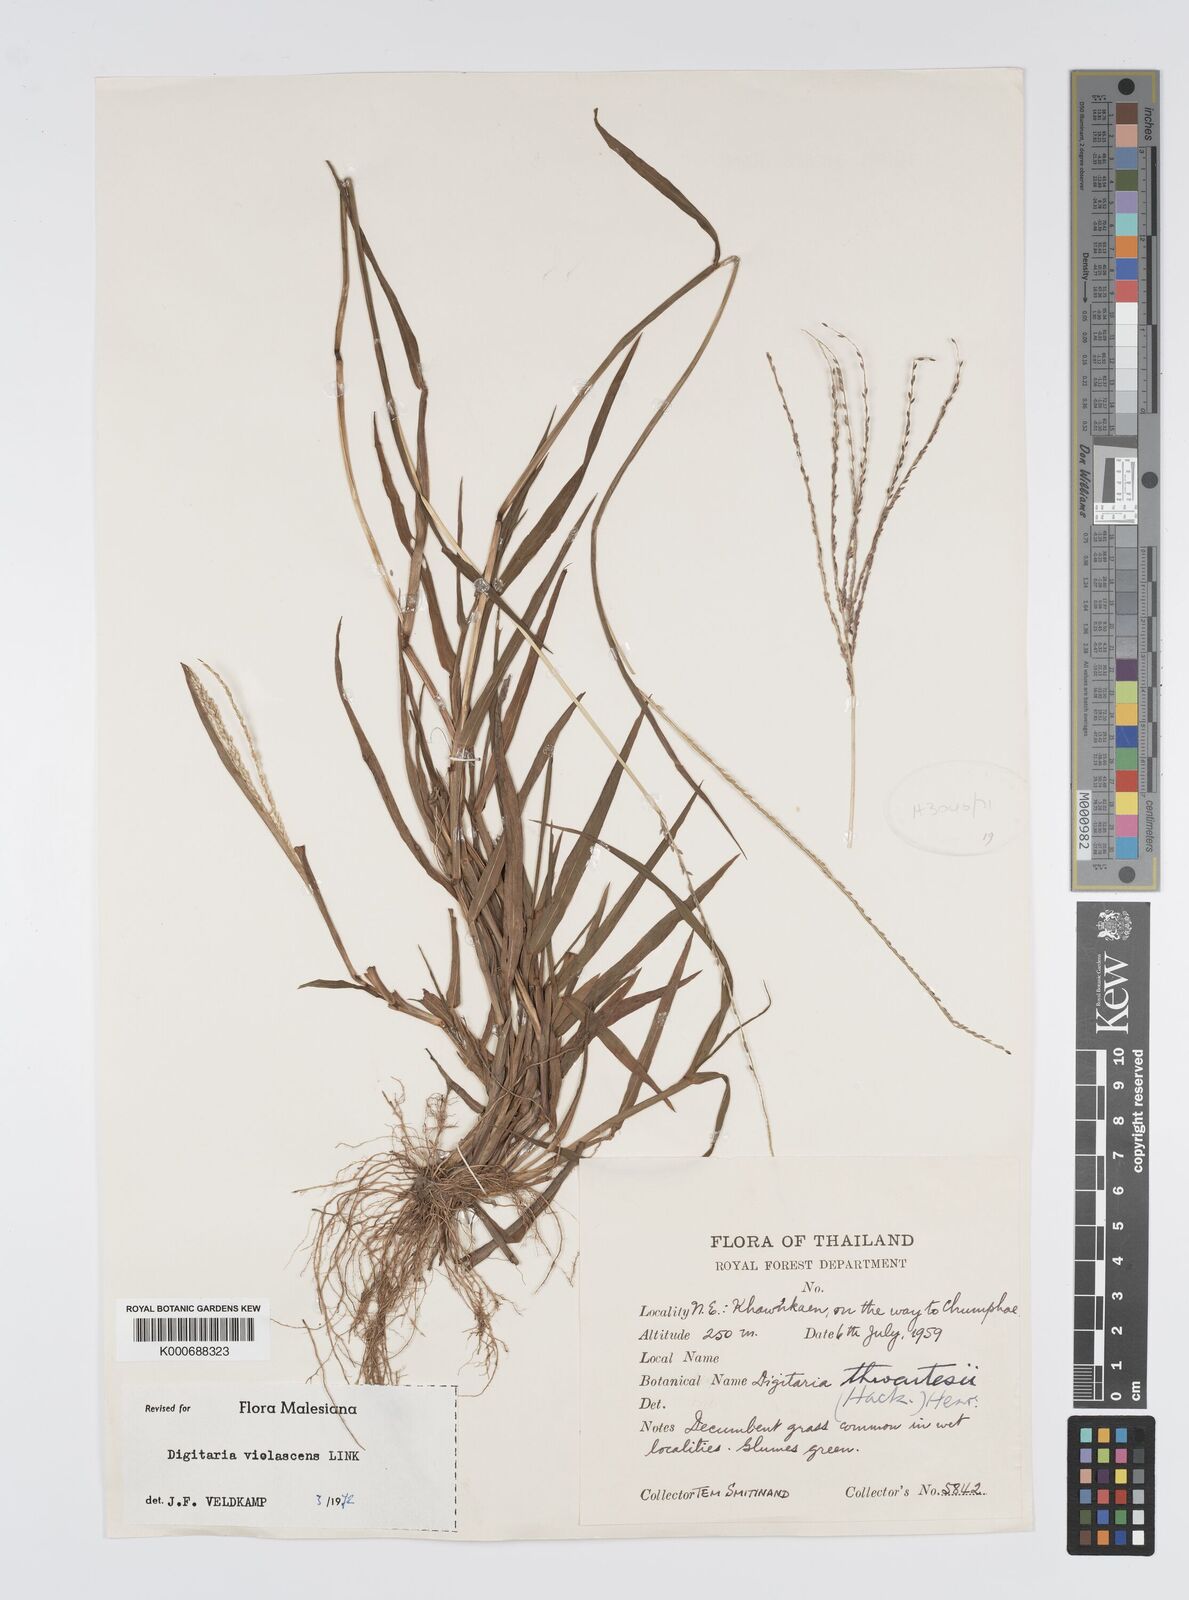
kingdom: Plantae
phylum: Tracheophyta
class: Liliopsida
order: Poales
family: Poaceae
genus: Digitaria
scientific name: Digitaria violascens
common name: Violet crabgrass
